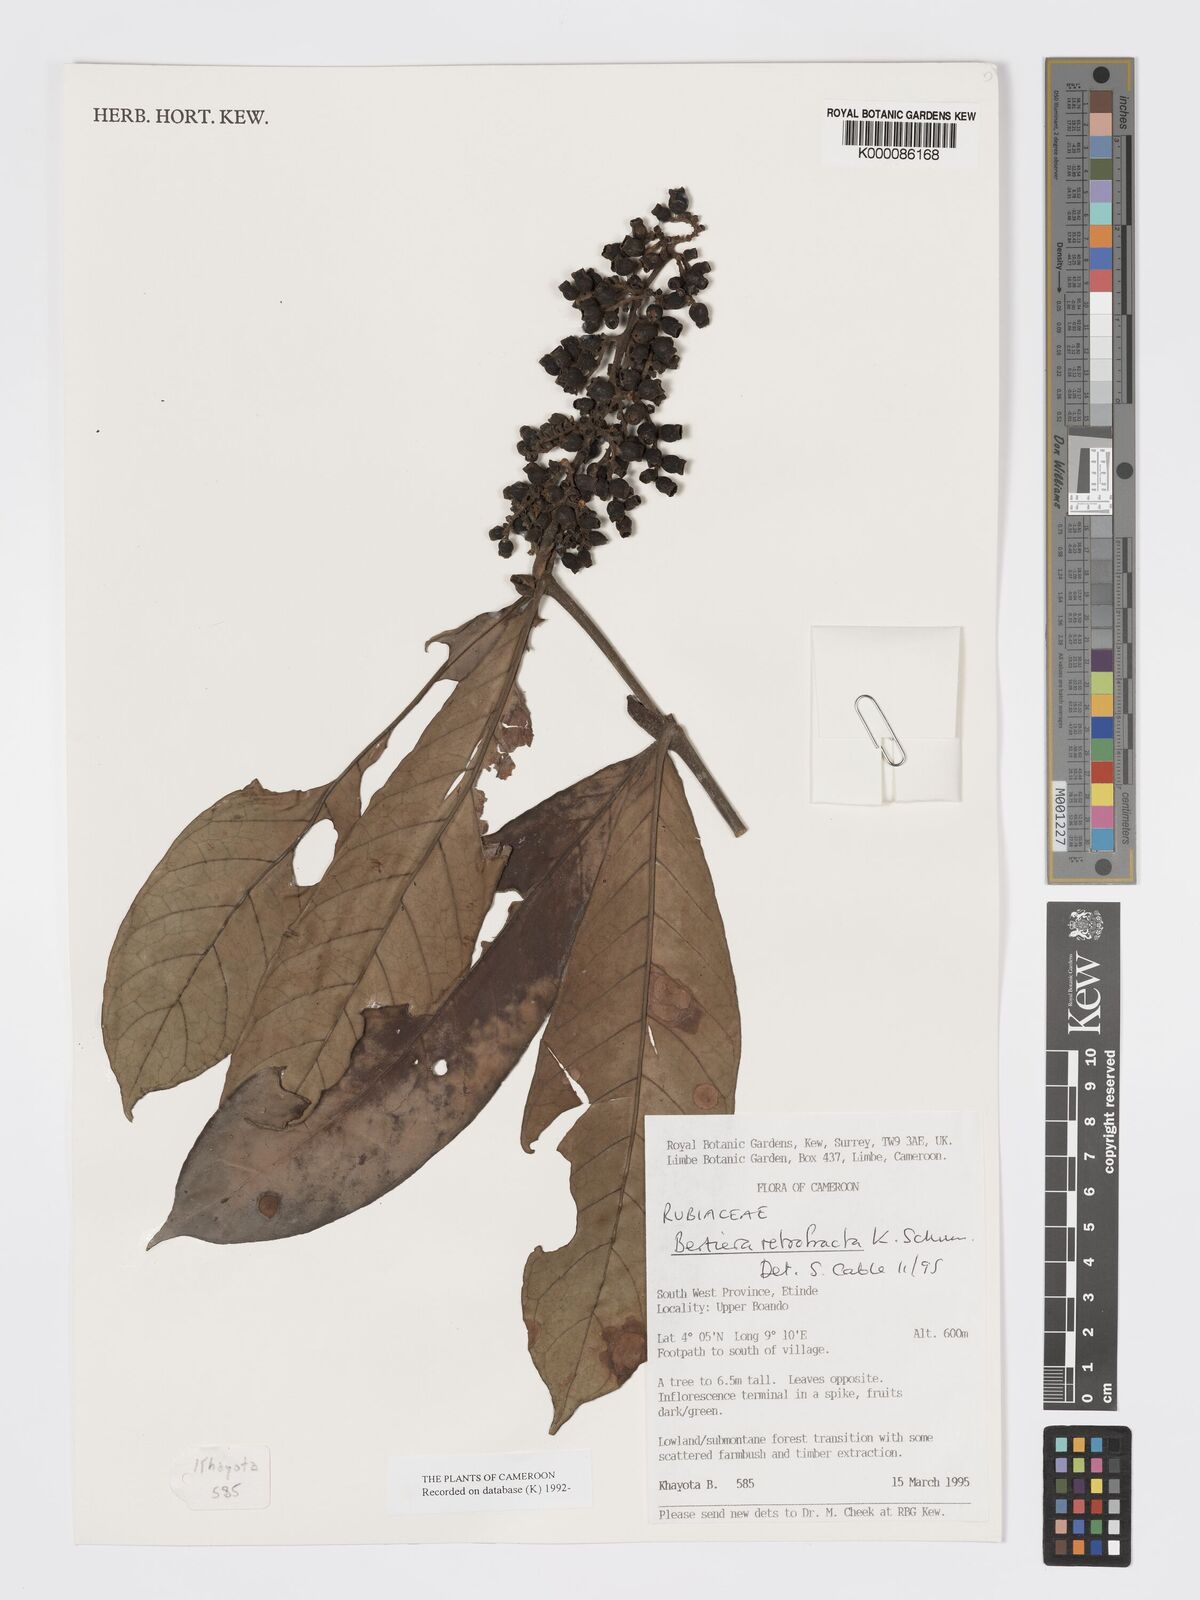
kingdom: Plantae
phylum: Tracheophyta
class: Magnoliopsida
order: Gentianales
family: Rubiaceae
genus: Bertiera
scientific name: Bertiera retrofracta
